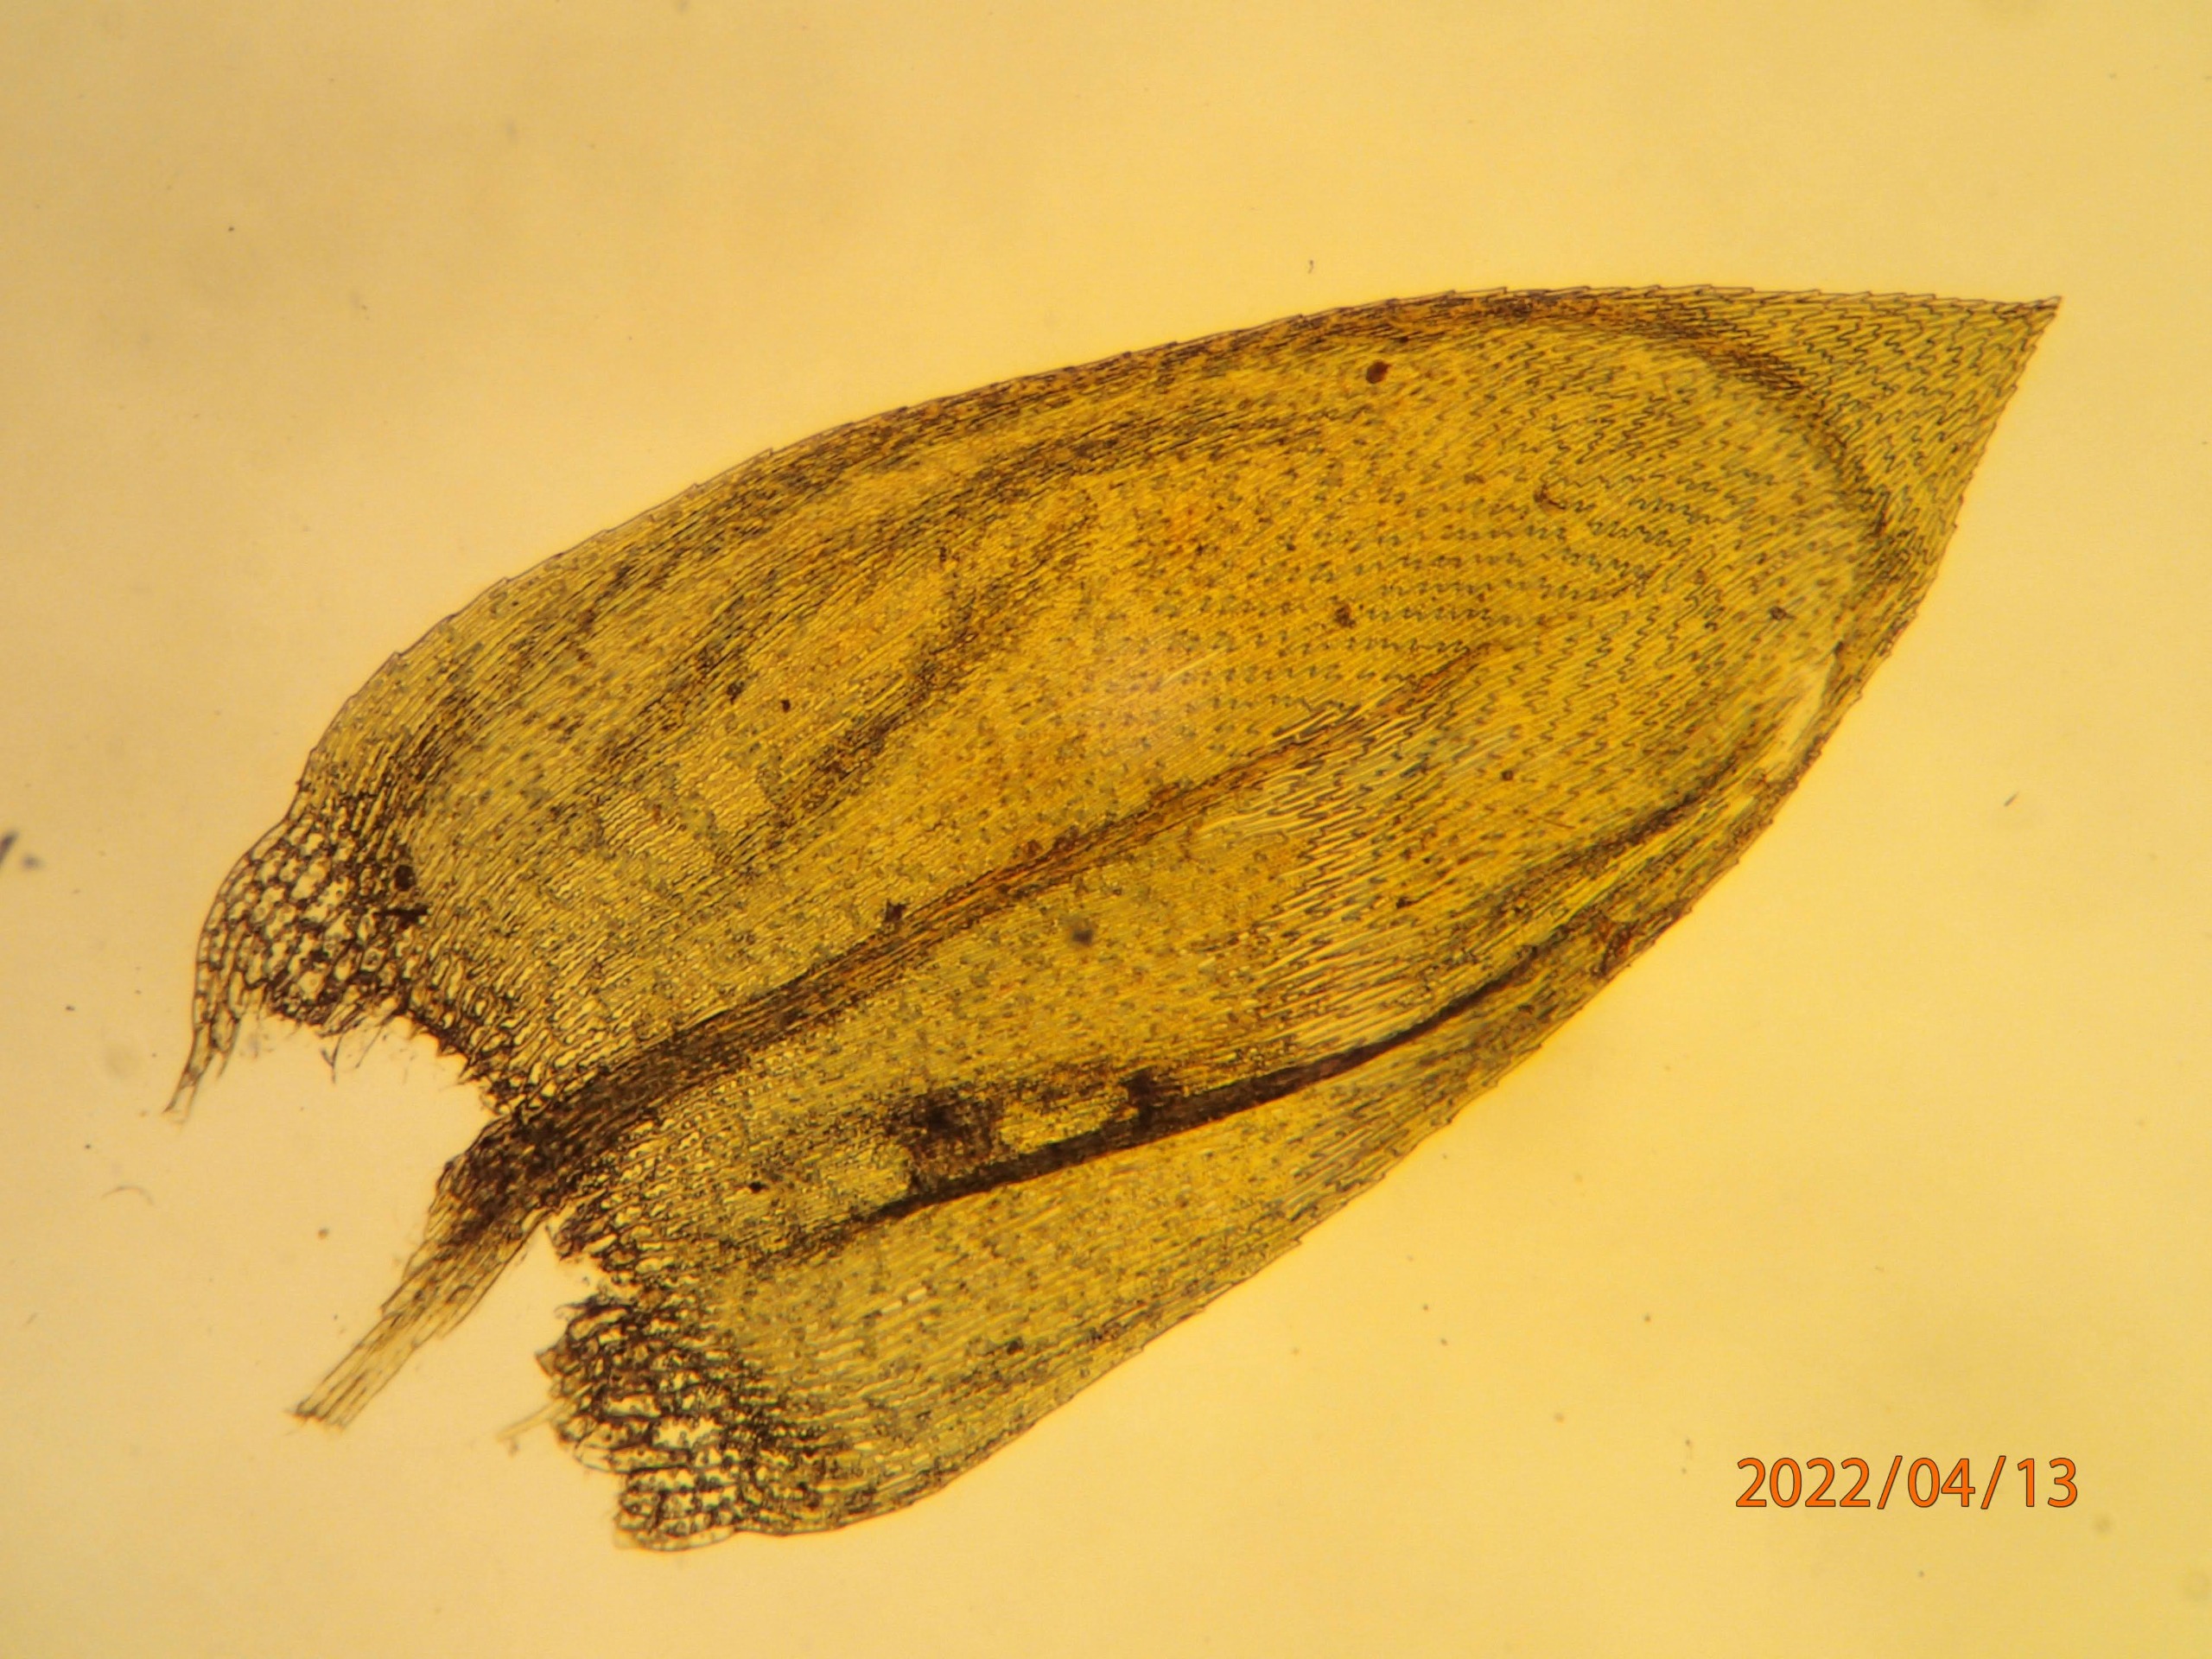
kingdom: Plantae
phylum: Bryophyta
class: Bryopsida
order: Hypnales
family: Brachytheciaceae
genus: Brachythecium
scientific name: Brachythecium rivulare
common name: Væld-kortkapsel
